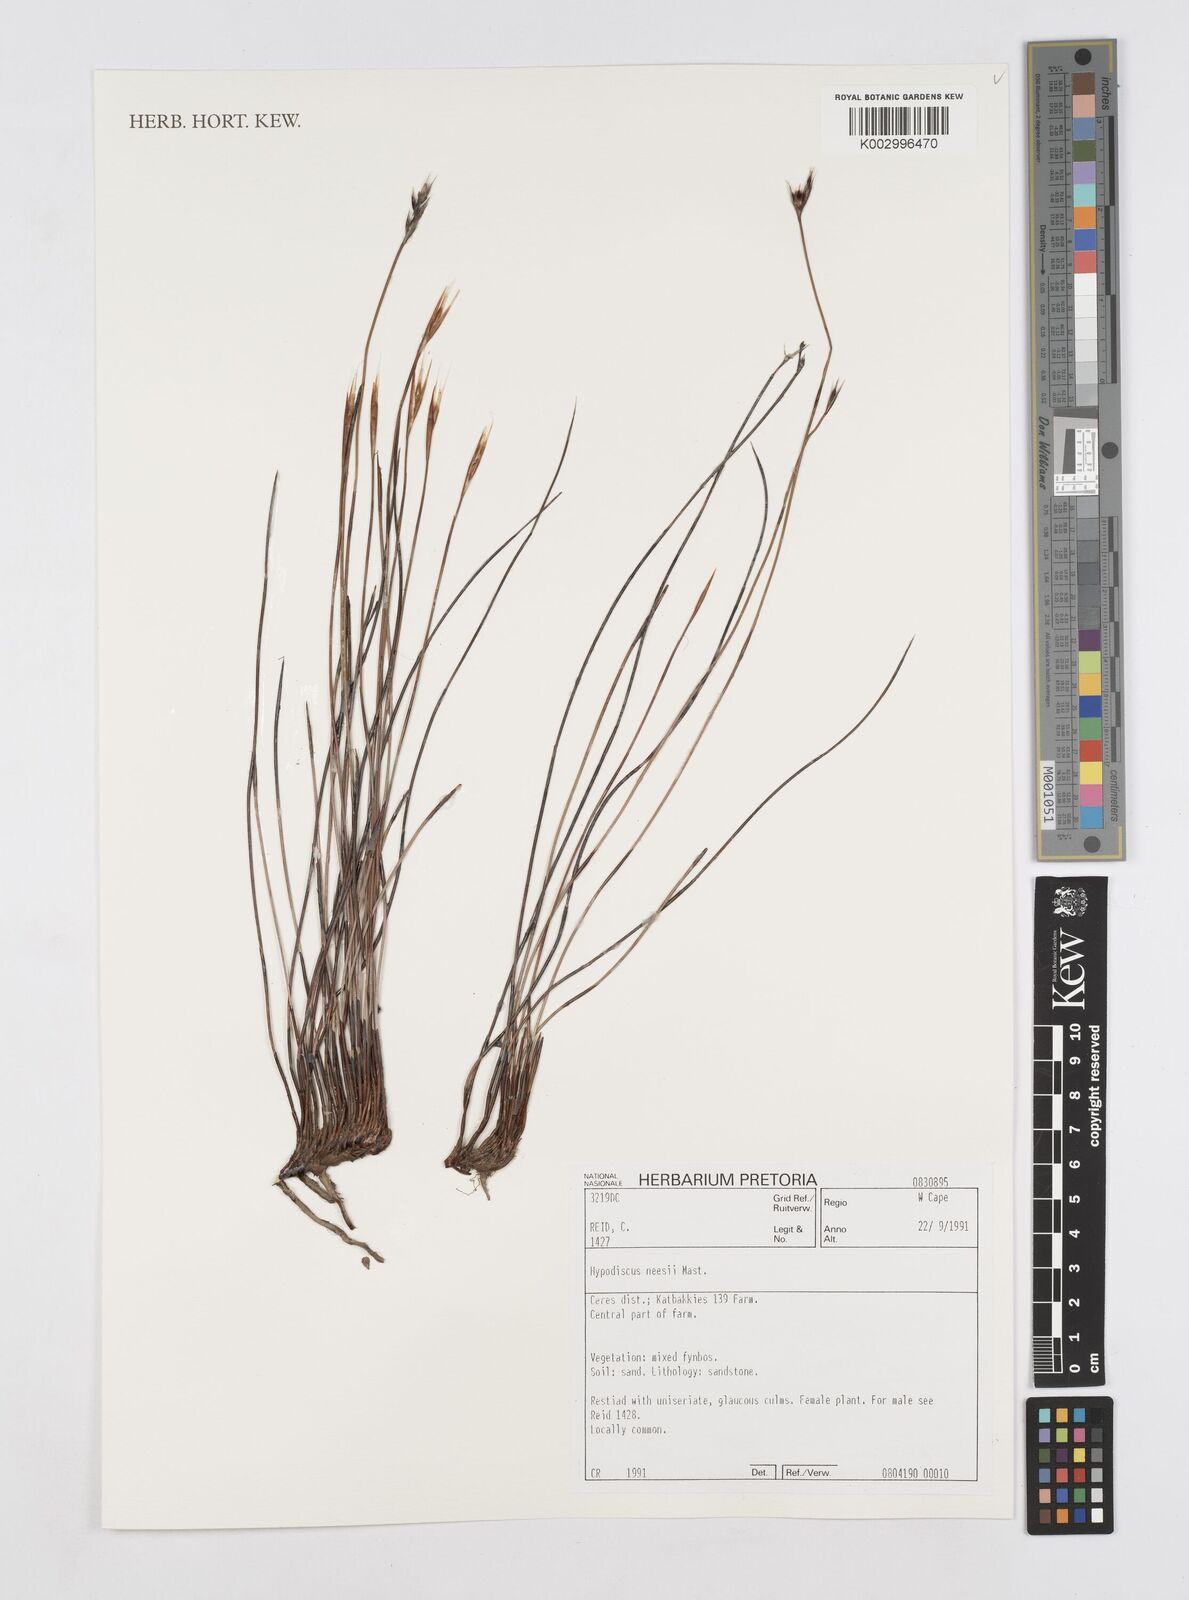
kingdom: Plantae
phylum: Tracheophyta
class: Liliopsida
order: Poales
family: Restionaceae
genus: Hypodiscus
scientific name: Hypodiscus neesii
